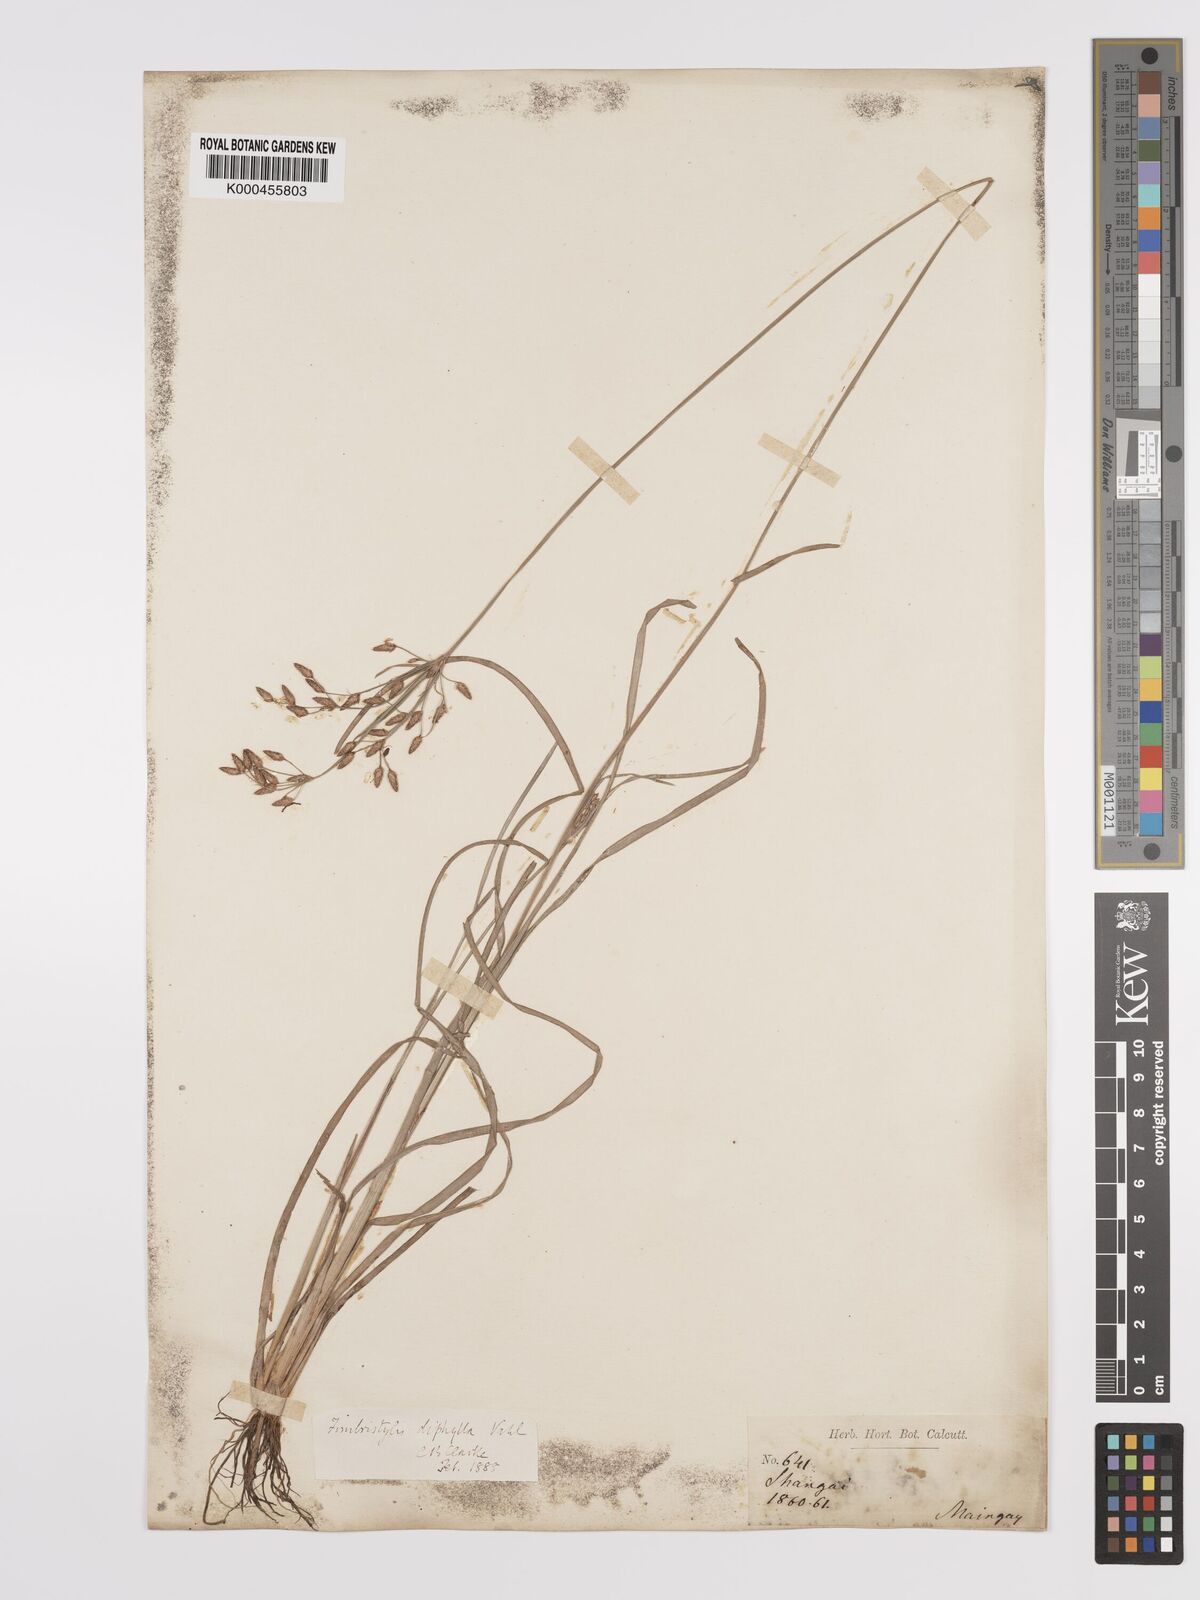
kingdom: Plantae
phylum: Tracheophyta
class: Liliopsida
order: Poales
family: Cyperaceae
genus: Fimbristylis
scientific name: Fimbristylis dichotoma
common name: Forked fimbry
